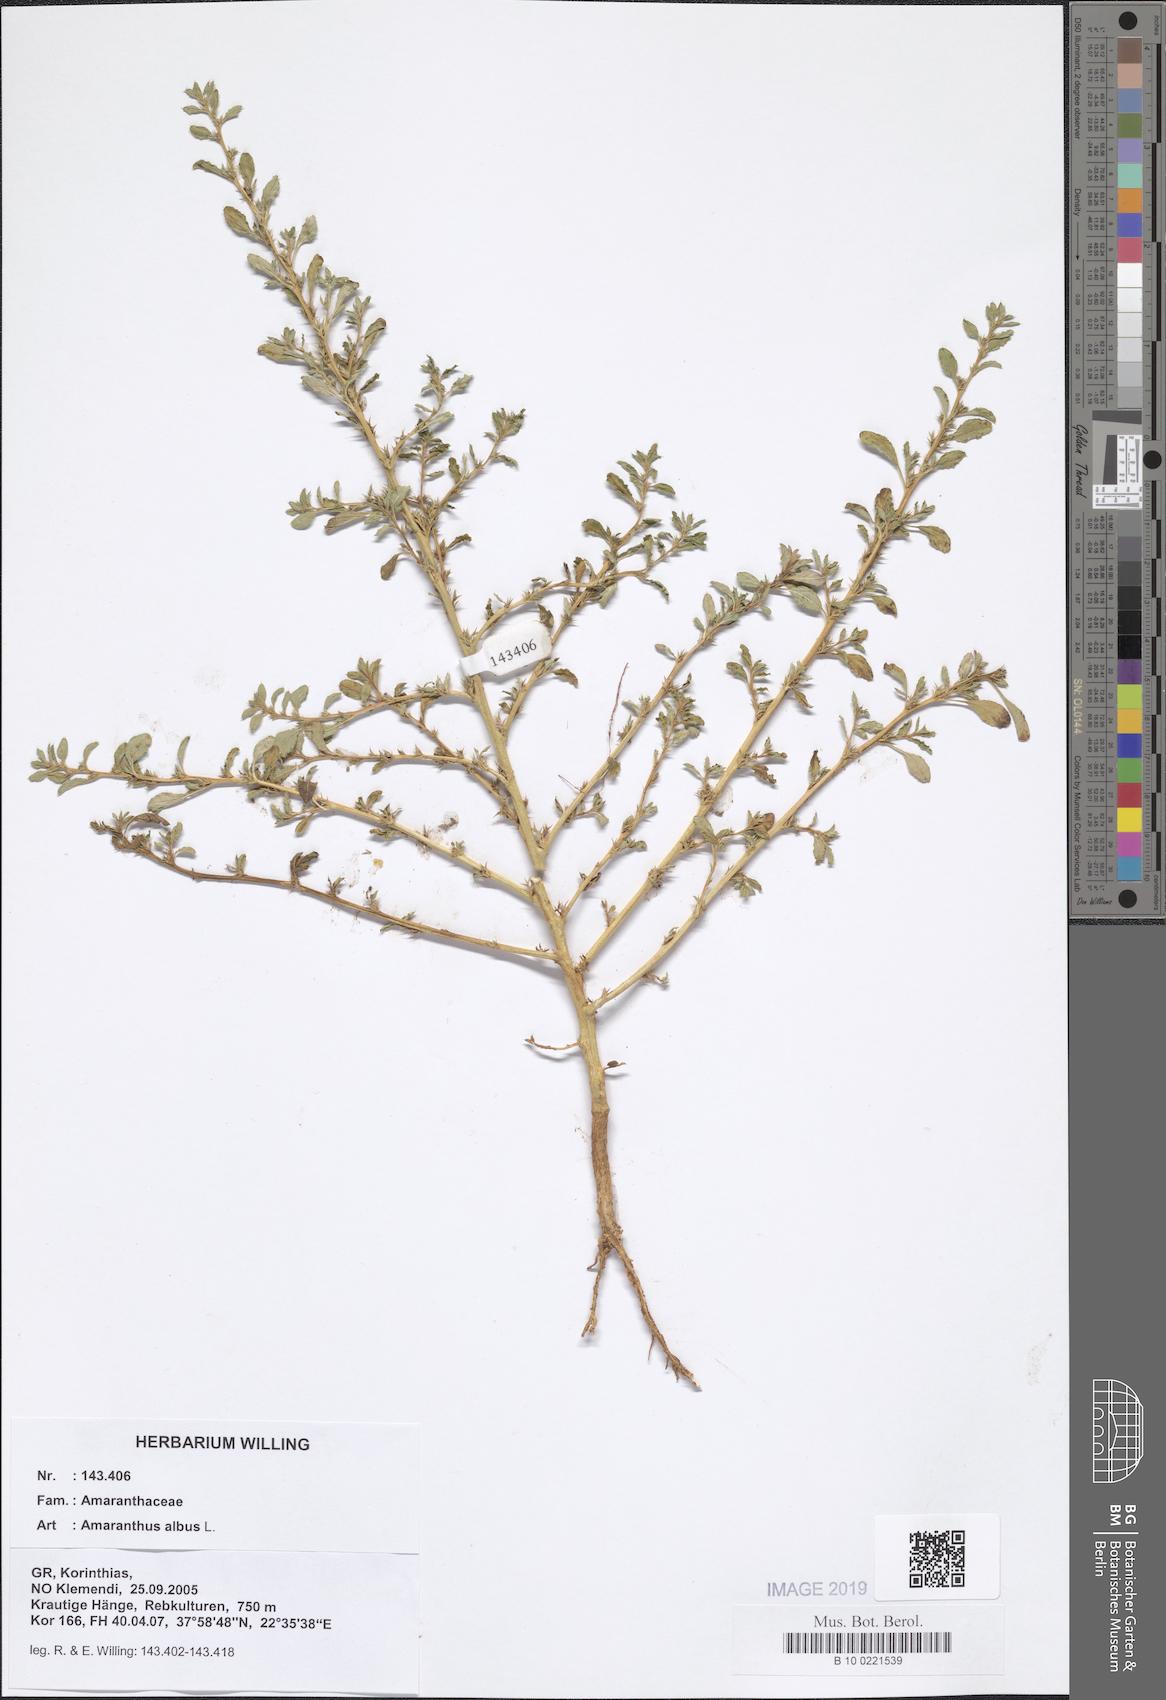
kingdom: Plantae
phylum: Tracheophyta
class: Magnoliopsida
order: Caryophyllales
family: Amaranthaceae
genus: Amaranthus
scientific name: Amaranthus albus
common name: White pigweed
